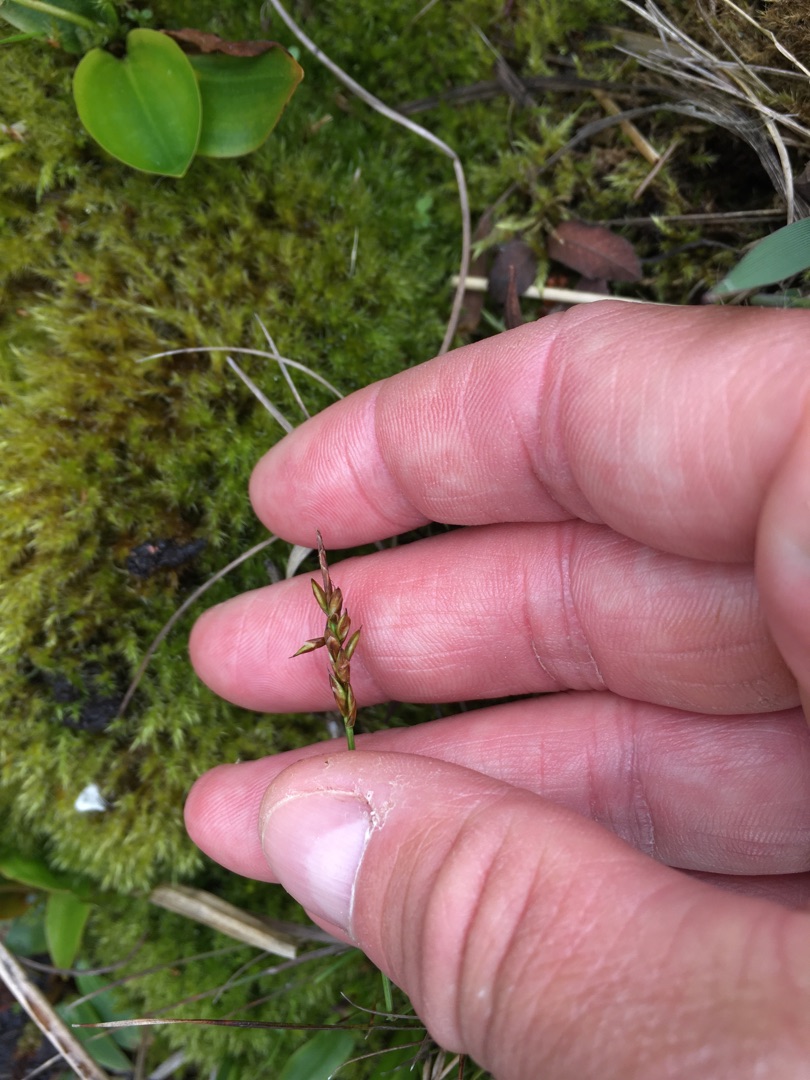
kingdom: Plantae
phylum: Tracheophyta
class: Liliopsida
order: Poales
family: Cyperaceae
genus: Carex
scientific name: Carex pulicaris
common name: Loppe-star
